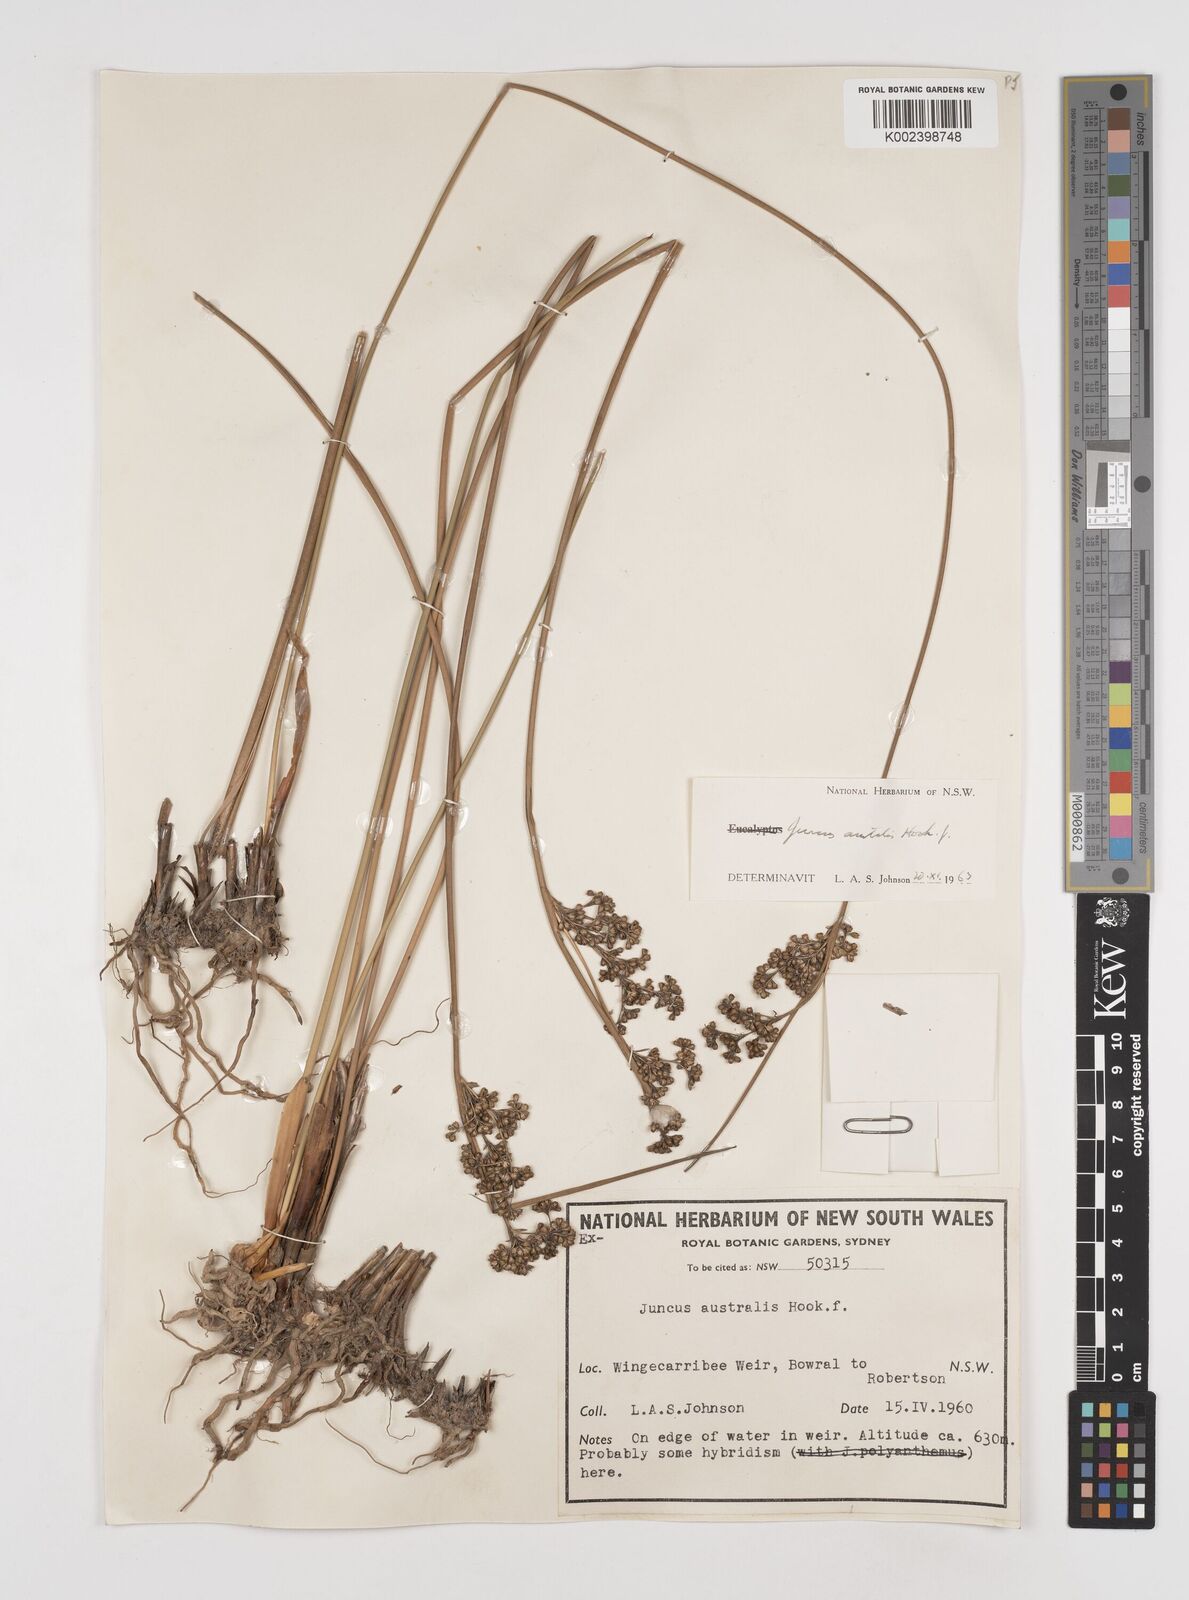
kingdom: Plantae
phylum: Tracheophyta
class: Liliopsida
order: Poales
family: Juncaceae
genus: Juncus
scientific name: Juncus australis
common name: Austral rush
